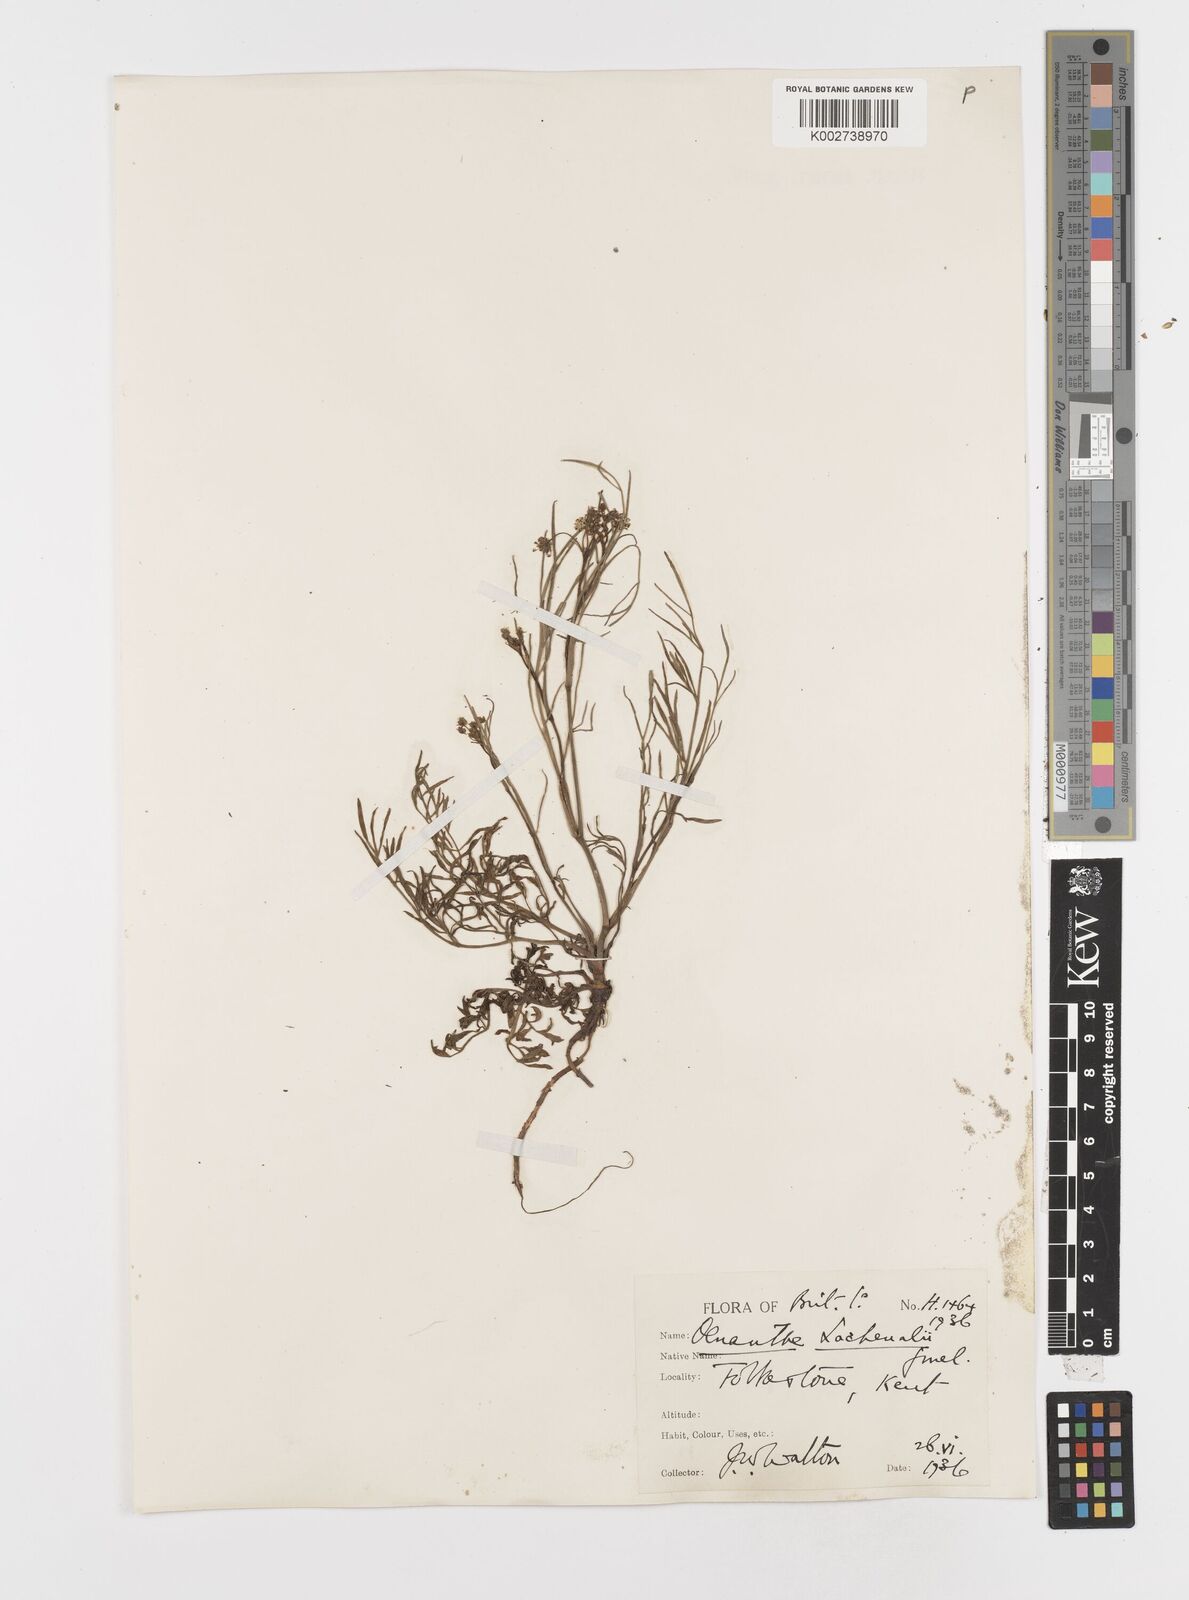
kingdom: Plantae
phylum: Tracheophyta
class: Magnoliopsida
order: Apiales
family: Apiaceae
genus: Oenanthe
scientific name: Oenanthe lachenalii
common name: Parsley water-dropwort
